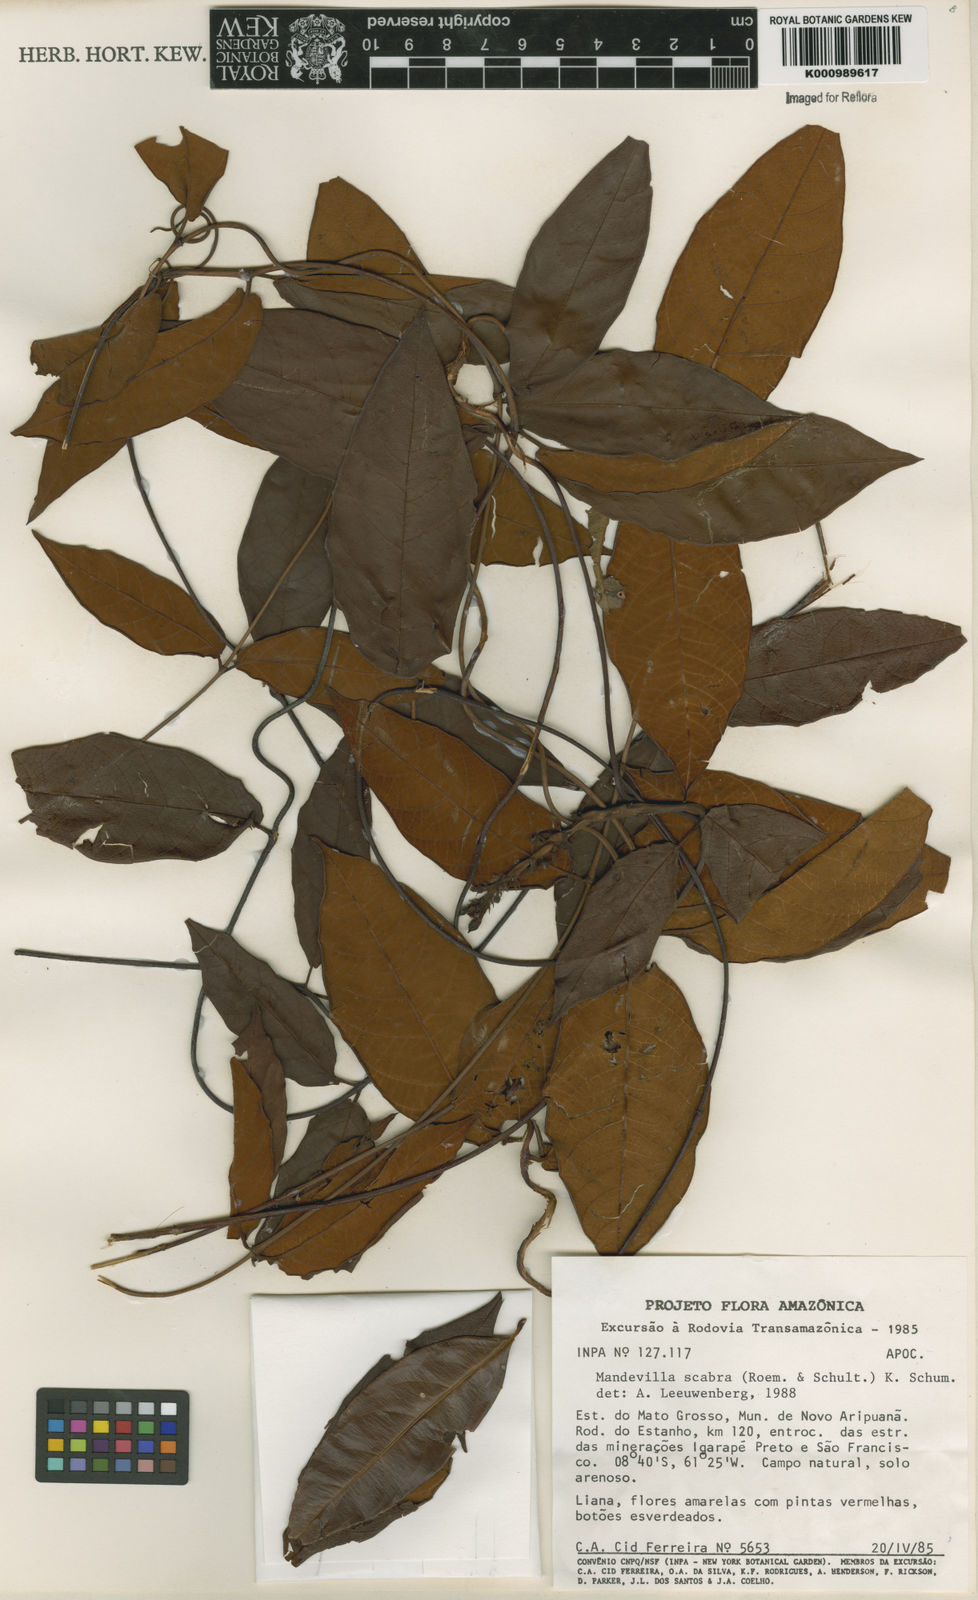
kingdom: Plantae
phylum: Tracheophyta
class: Magnoliopsida
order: Gentianales
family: Apocynaceae
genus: Mandevilla
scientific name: Mandevilla scabra
